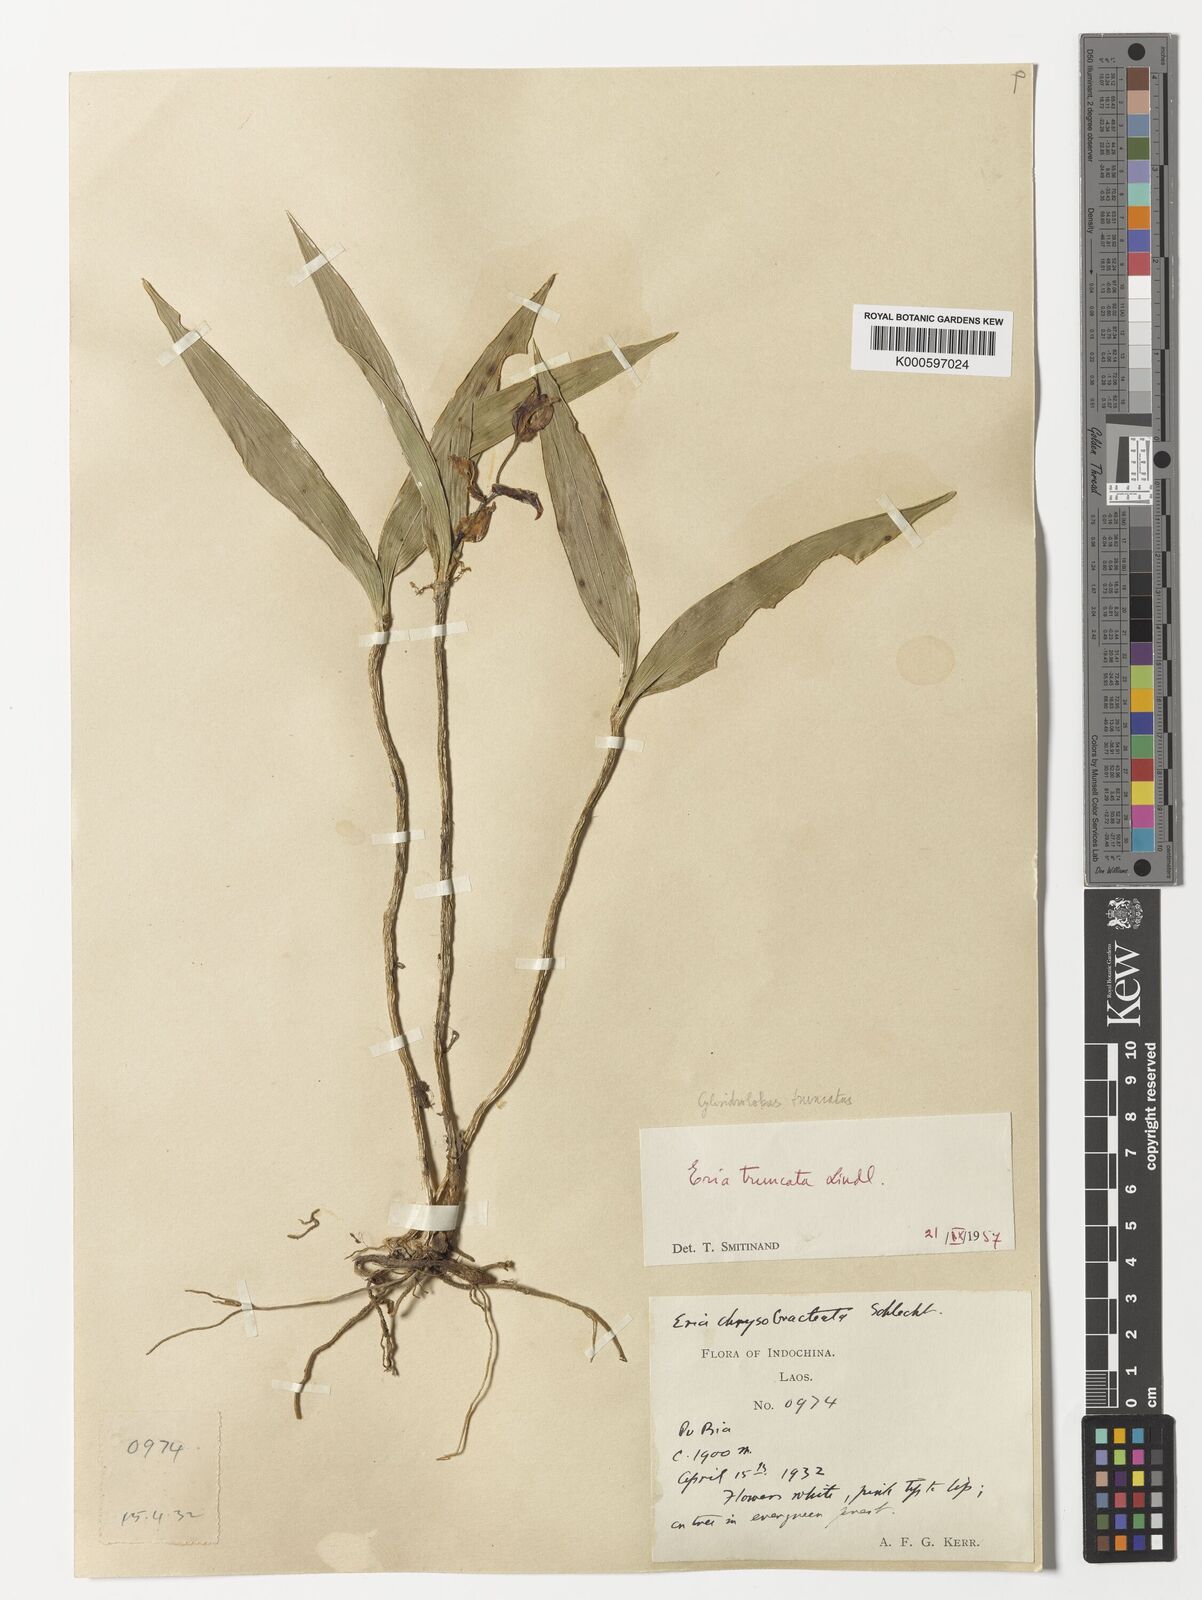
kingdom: Plantae
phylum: Tracheophyta
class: Liliopsida
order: Asparagales
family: Orchidaceae
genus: Cylindrolobus
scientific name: Cylindrolobus truncatus
